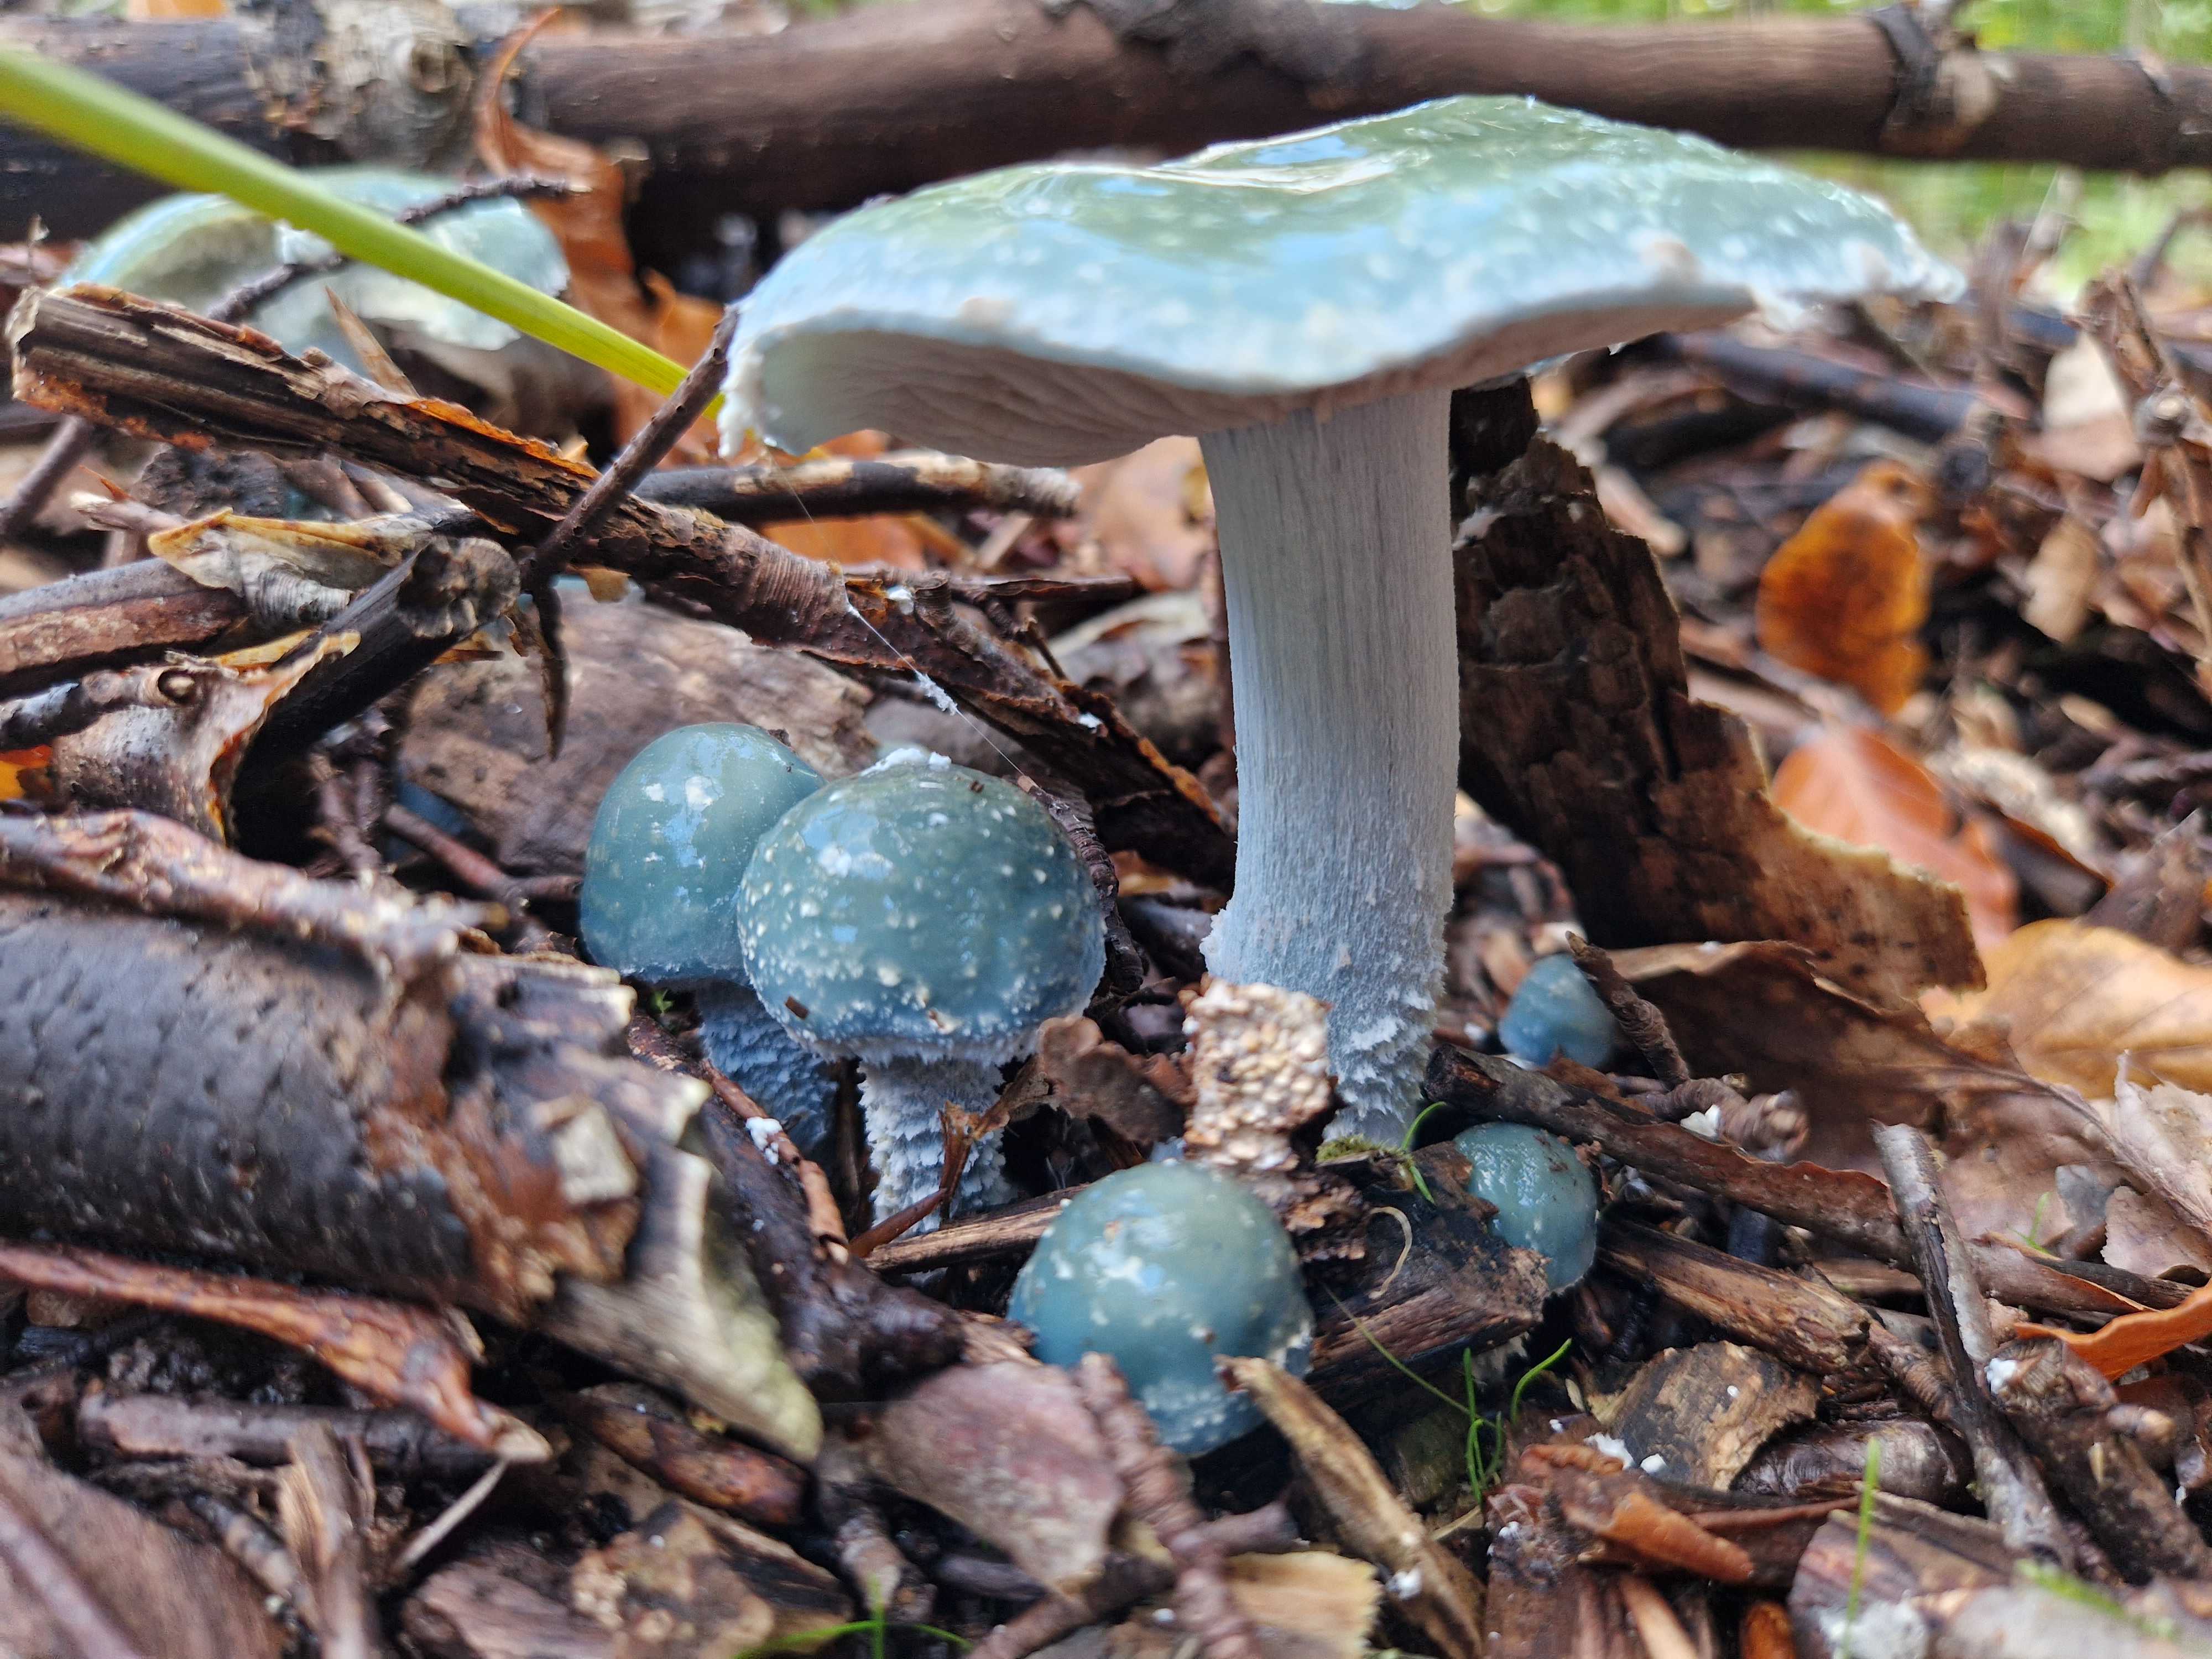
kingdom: Fungi
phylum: Basidiomycota
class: Agaricomycetes
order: Agaricales
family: Strophariaceae
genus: Stropharia
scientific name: Stropharia cyanea
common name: blågrøn bredblad
